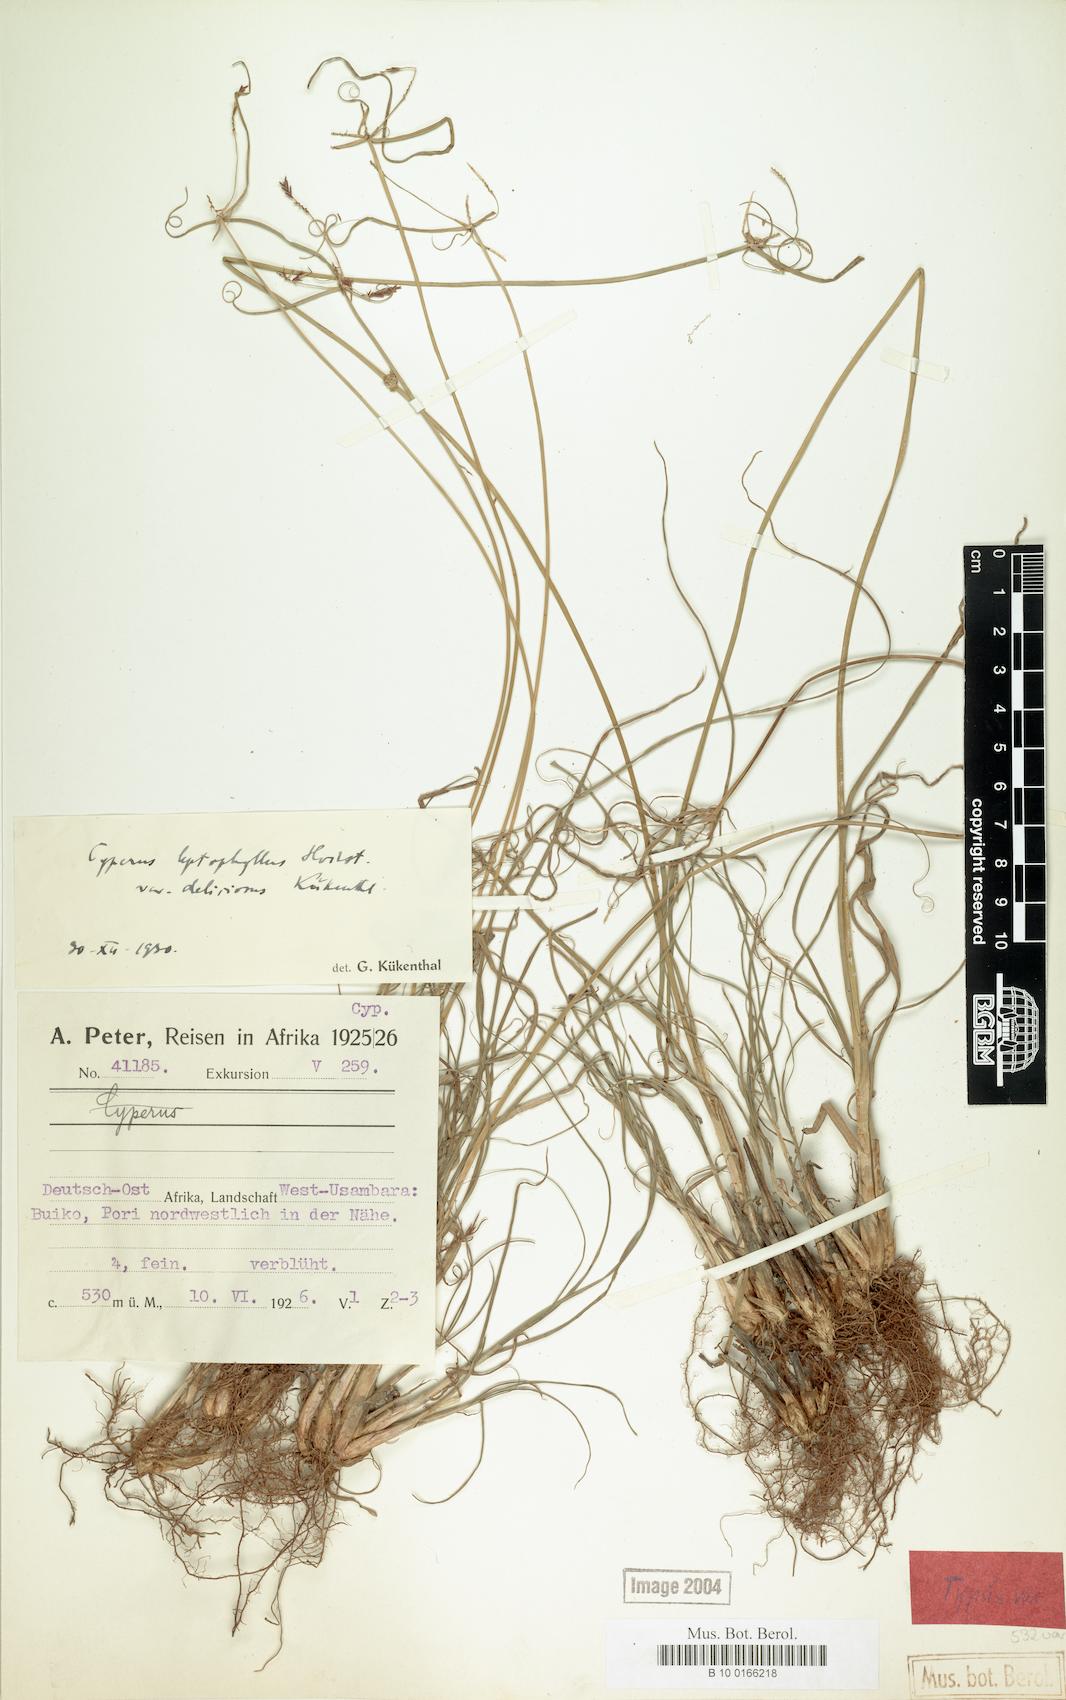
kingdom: Plantae
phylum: Tracheophyta
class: Liliopsida
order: Poales
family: Cyperaceae
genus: Cyperus
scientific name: Cyperus amauropus
